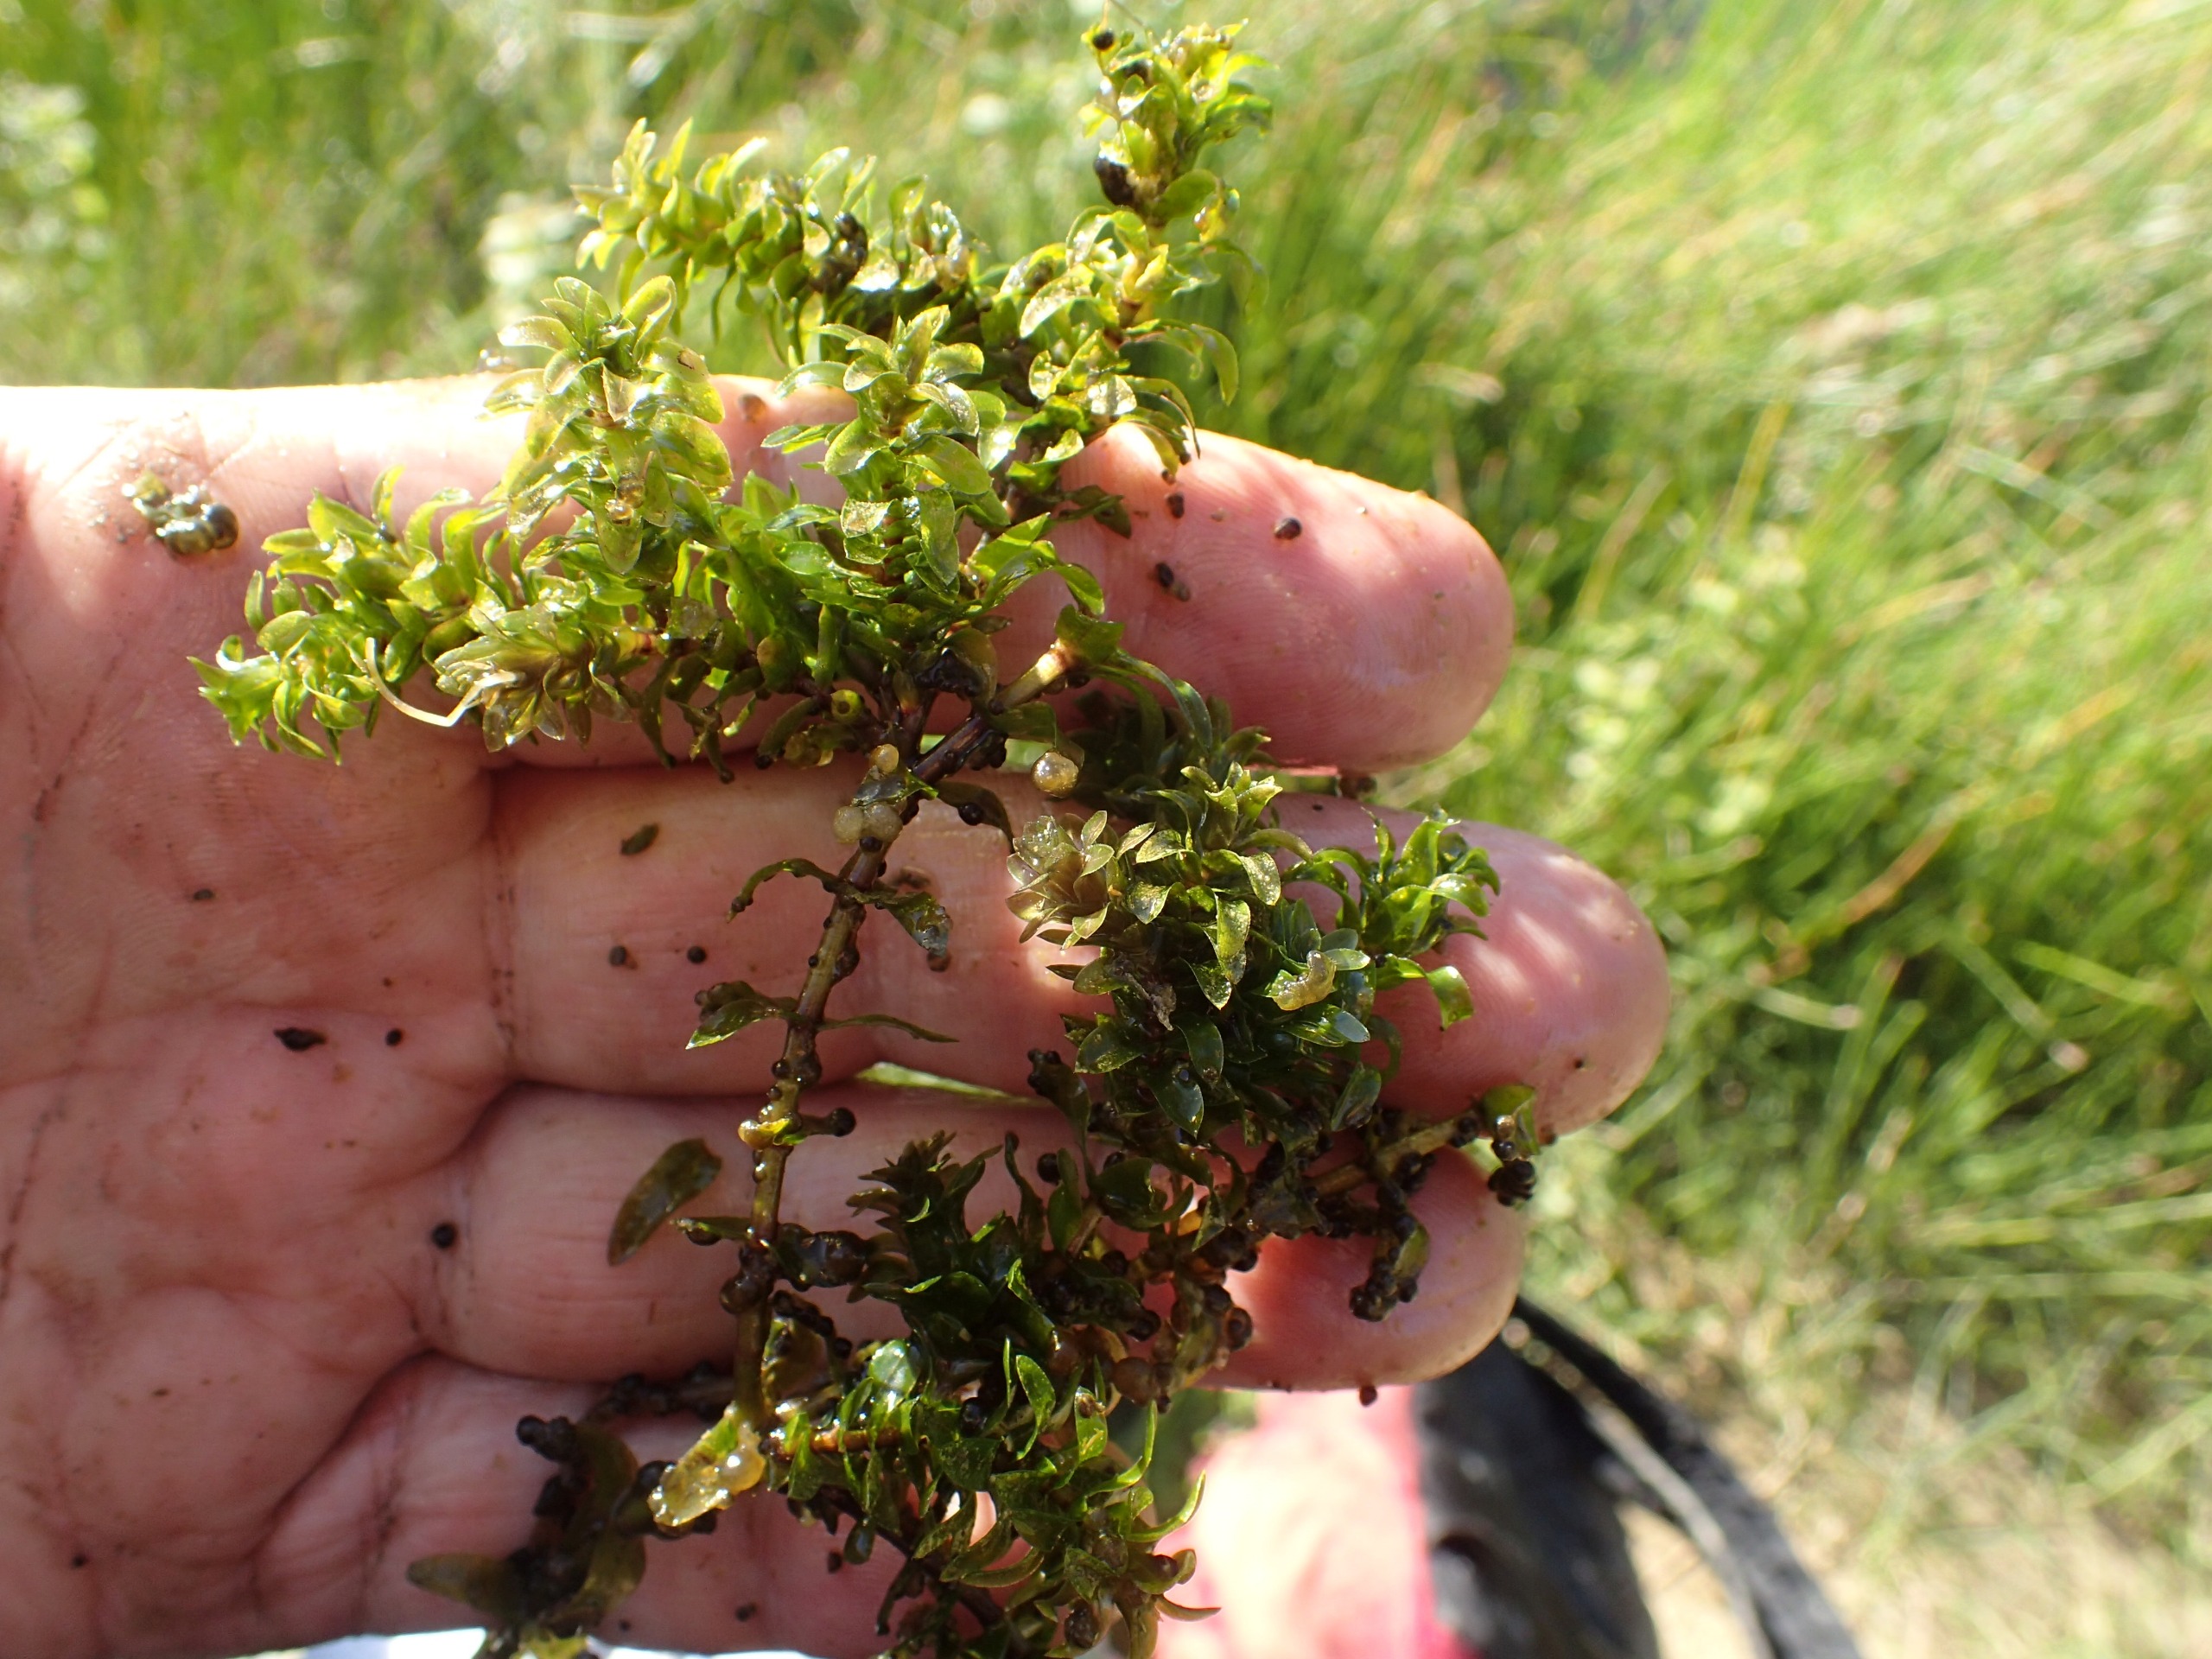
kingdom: Plantae
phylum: Tracheophyta
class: Liliopsida
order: Alismatales
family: Hydrocharitaceae
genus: Elodea
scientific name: Elodea canadensis
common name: Vandpest
